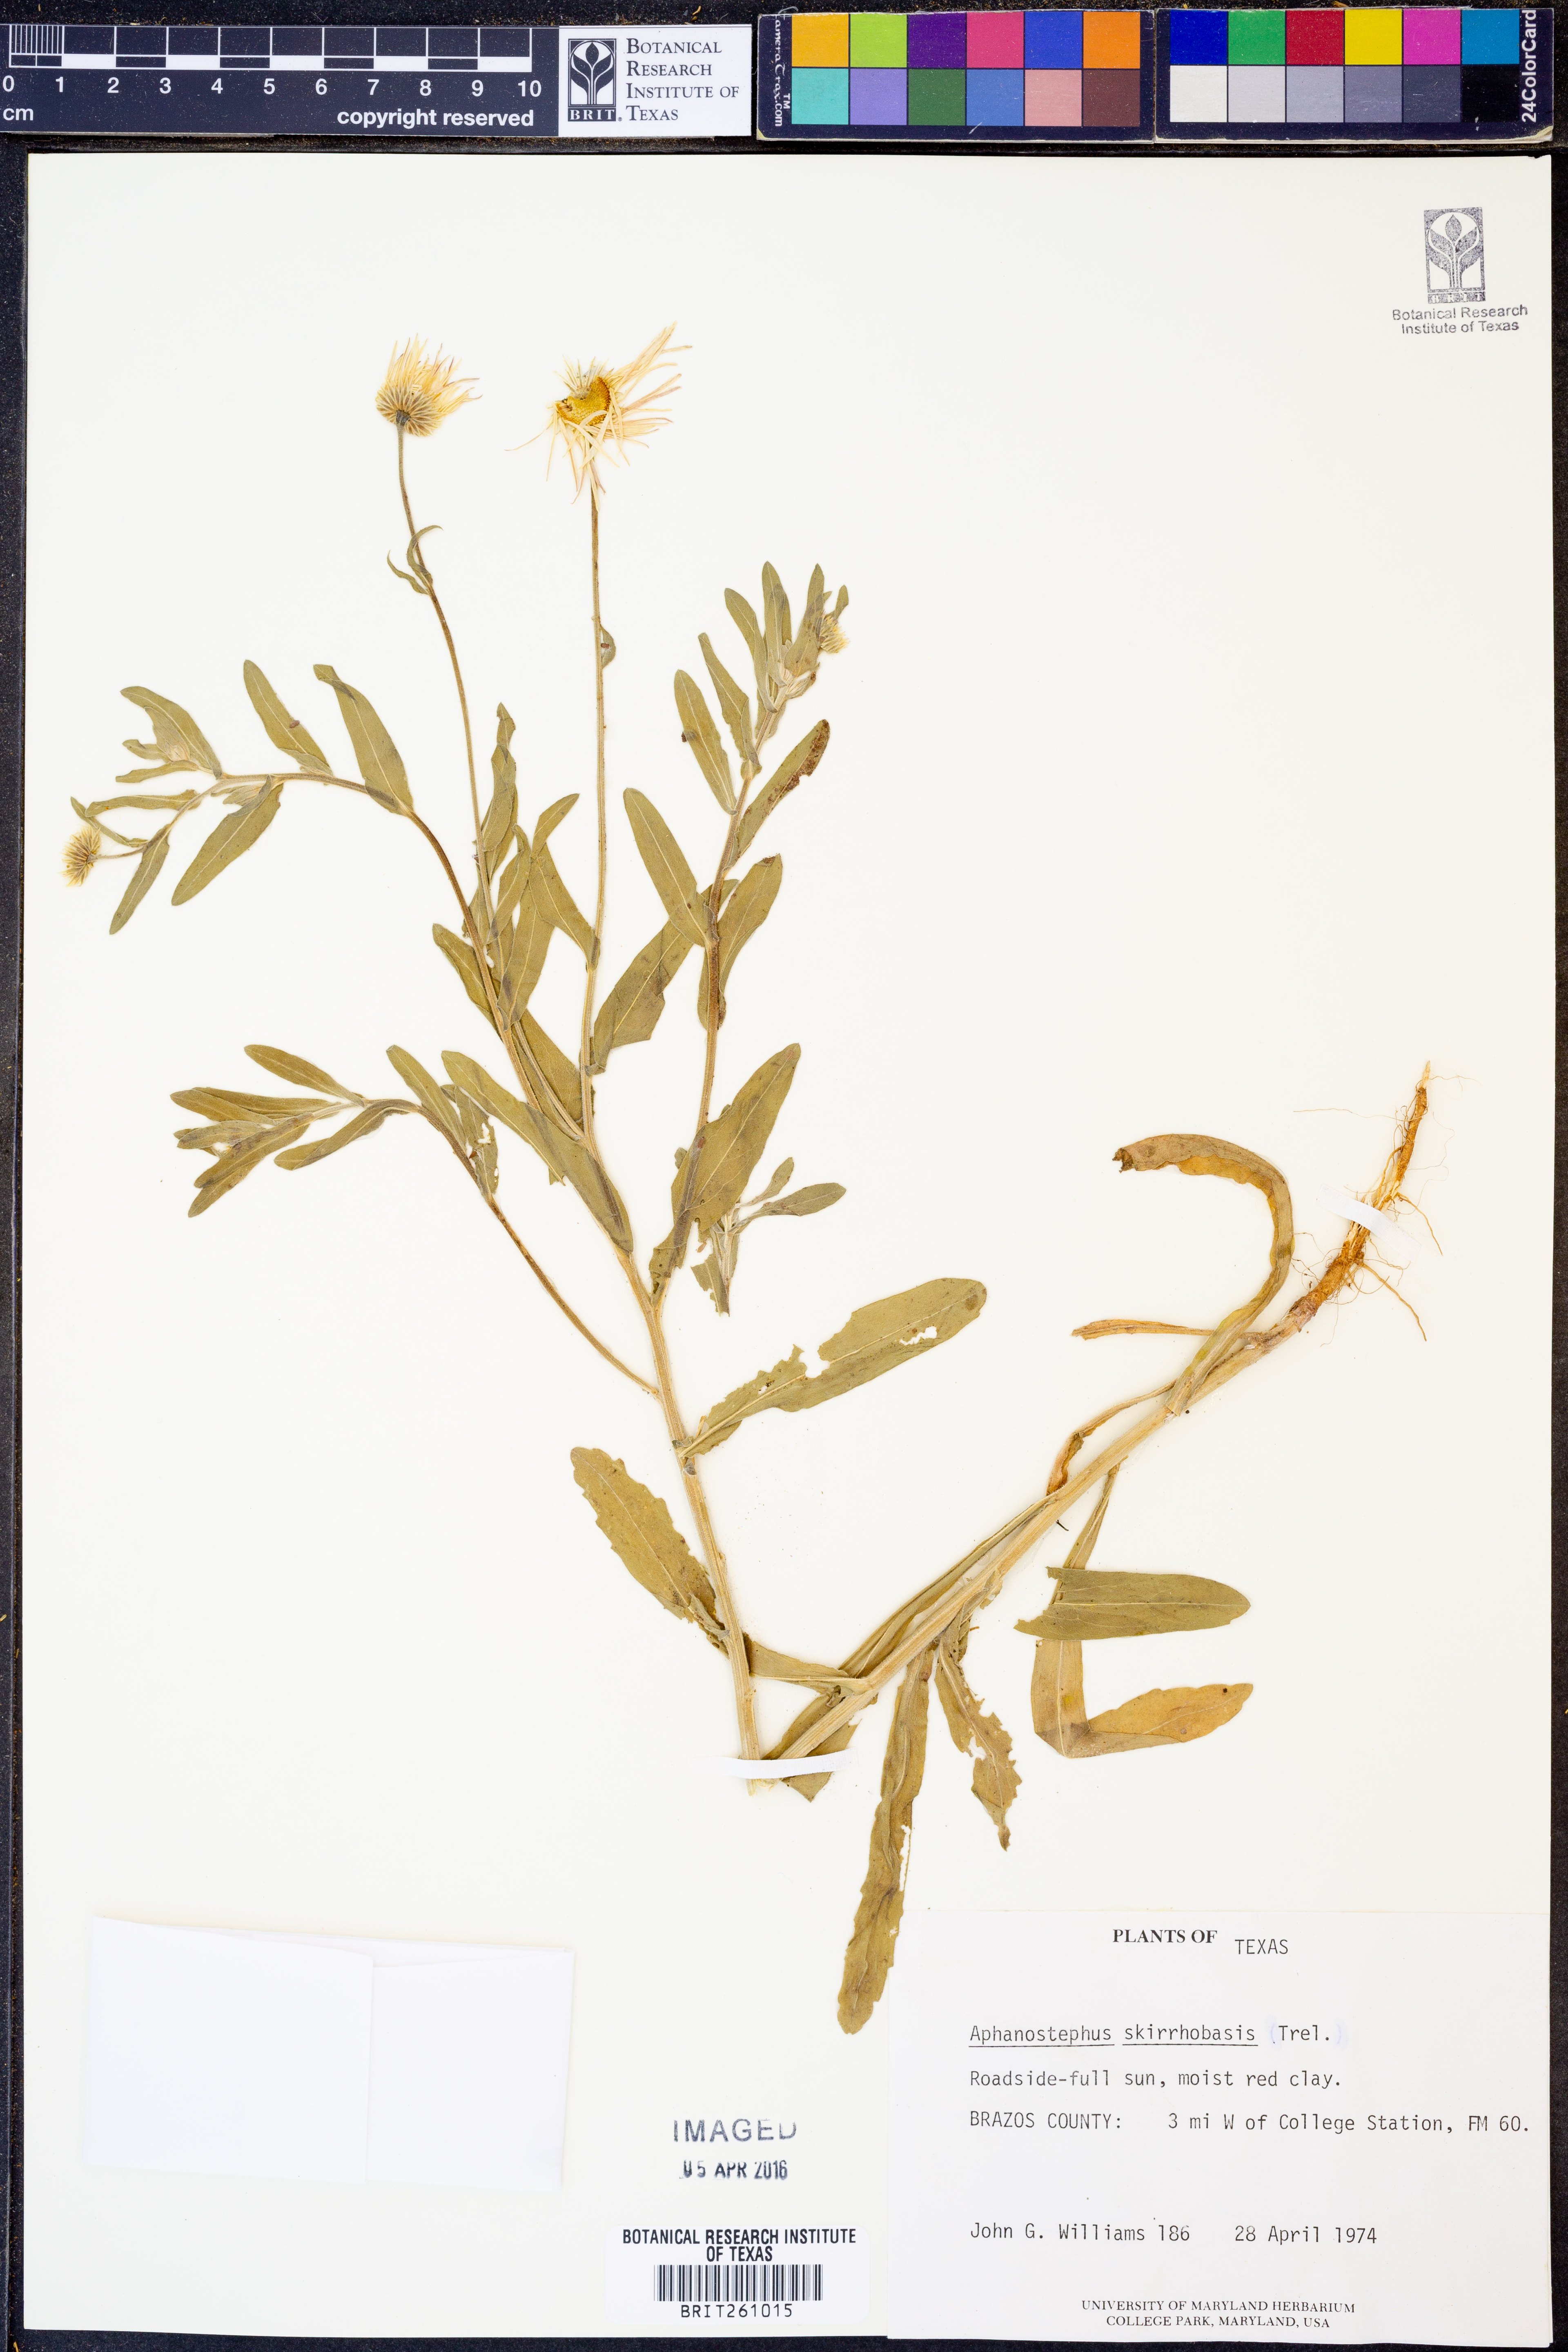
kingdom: Plantae
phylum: Tracheophyta
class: Magnoliopsida
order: Asterales
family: Asteraceae
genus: Aphanostephus
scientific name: Aphanostephus skirrhobasis
